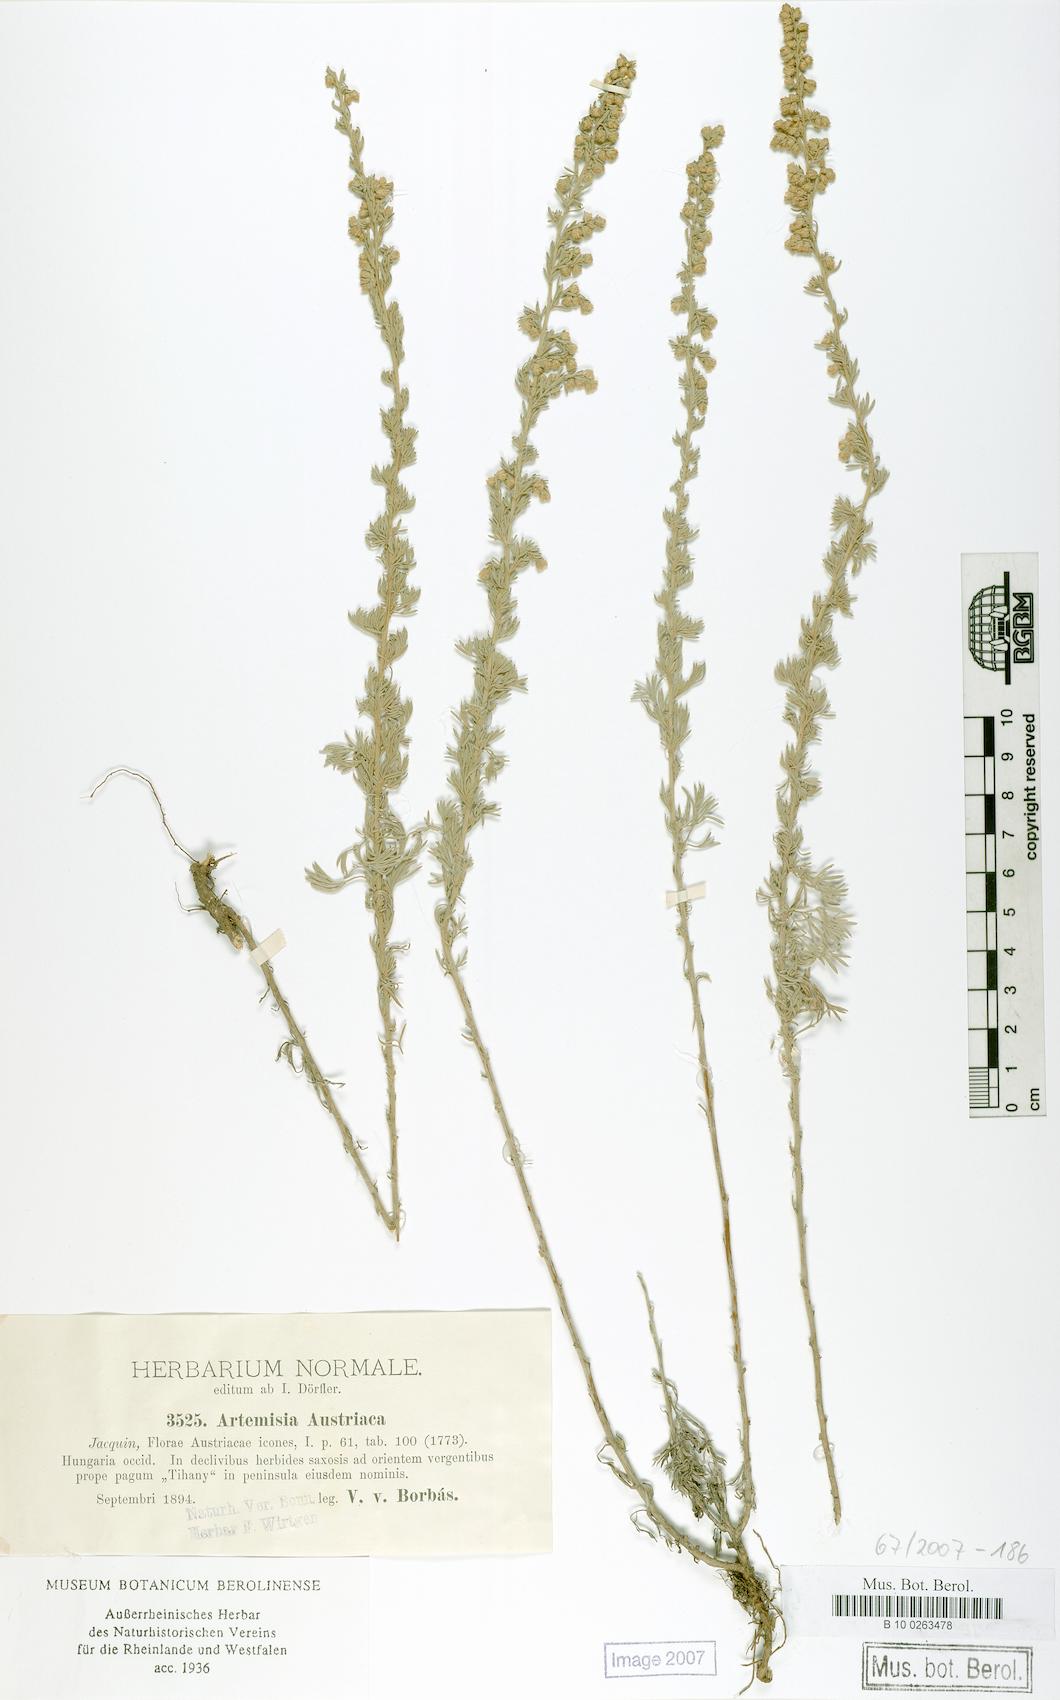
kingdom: Plantae
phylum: Tracheophyta
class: Magnoliopsida
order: Asterales
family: Asteraceae
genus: Artemisia
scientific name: Artemisia austriaca
